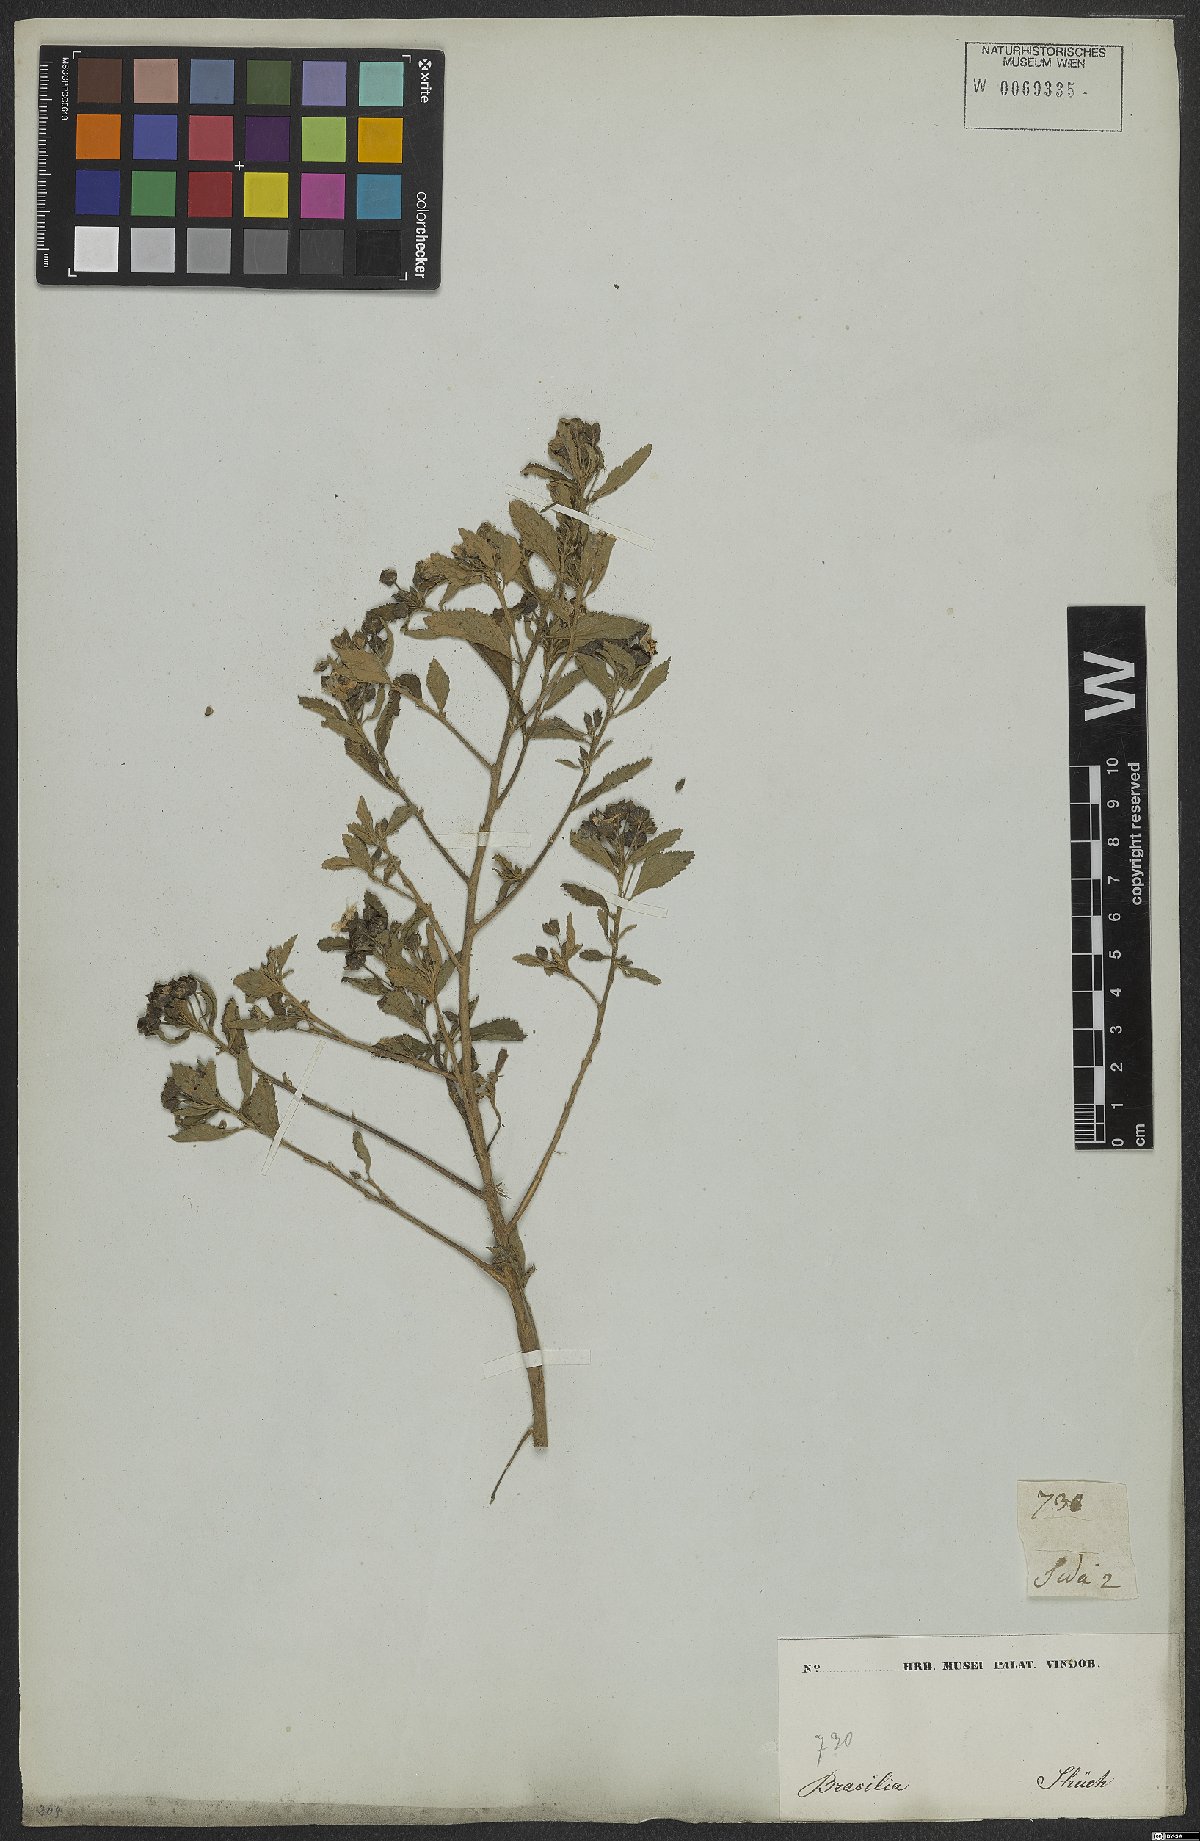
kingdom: Plantae
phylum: Tracheophyta
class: Magnoliopsida
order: Malvales
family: Malvaceae
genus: Sida
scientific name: Sida rhombifolia
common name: Queensland-hemp
